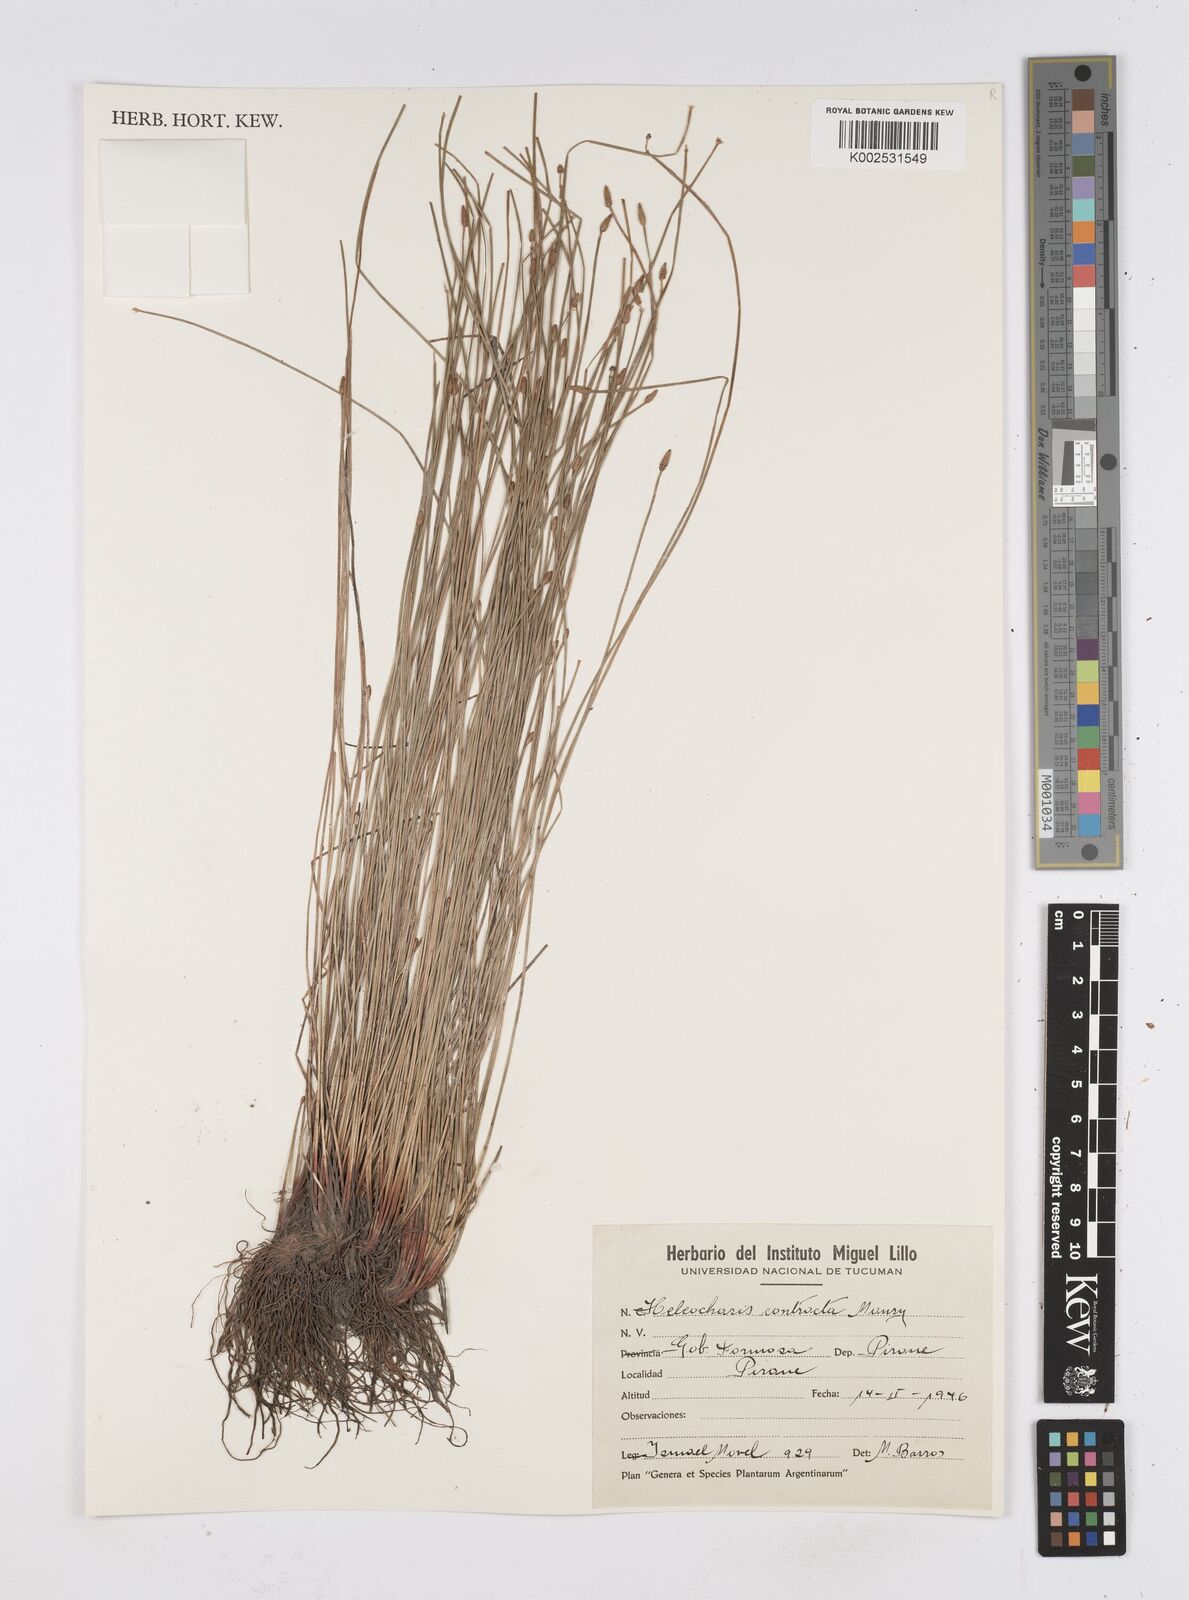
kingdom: Plantae
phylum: Tracheophyta
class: Liliopsida
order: Poales
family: Cyperaceae
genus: Eleocharis
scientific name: Eleocharis montana
